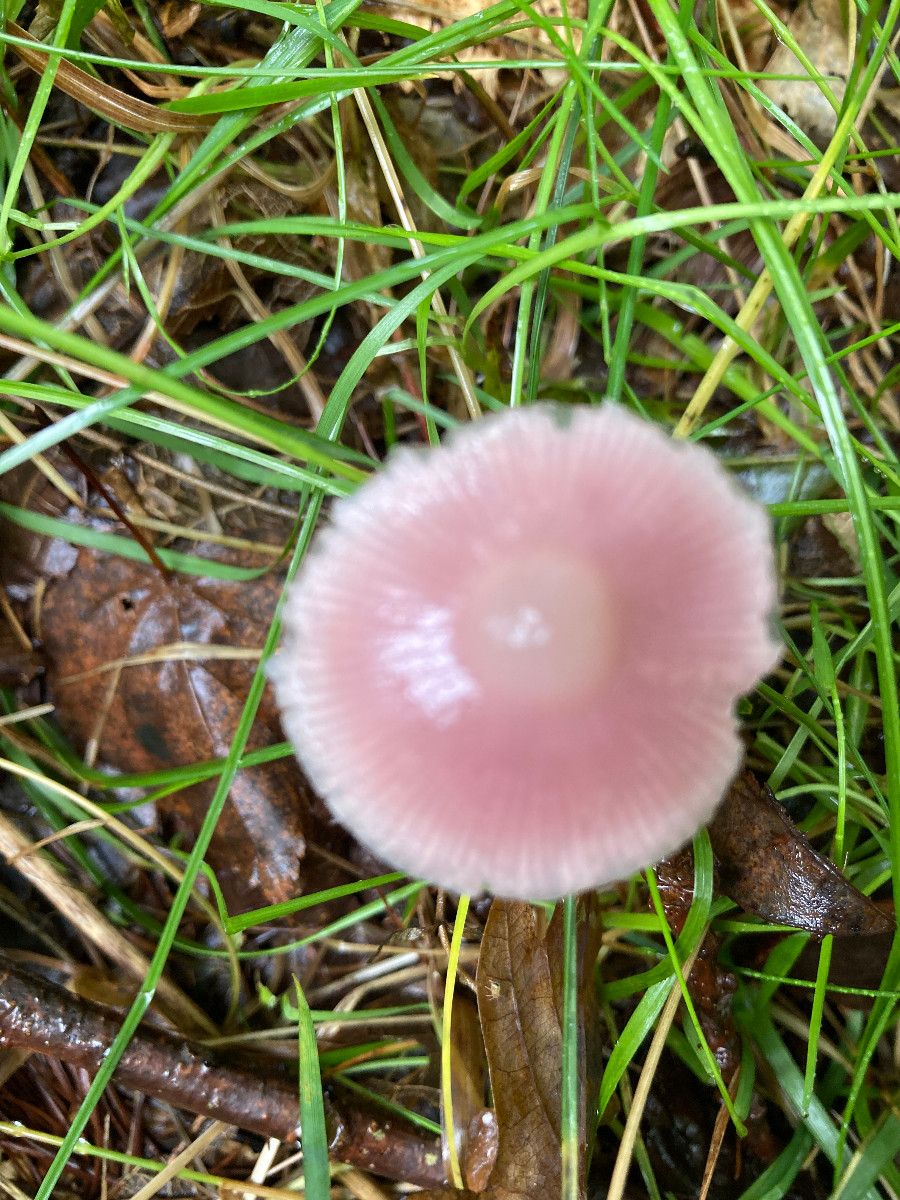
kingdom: Fungi
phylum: Basidiomycota
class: Agaricomycetes
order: Agaricales
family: Mycenaceae
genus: Mycena
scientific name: Mycena rosea
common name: rosa huesvamp
